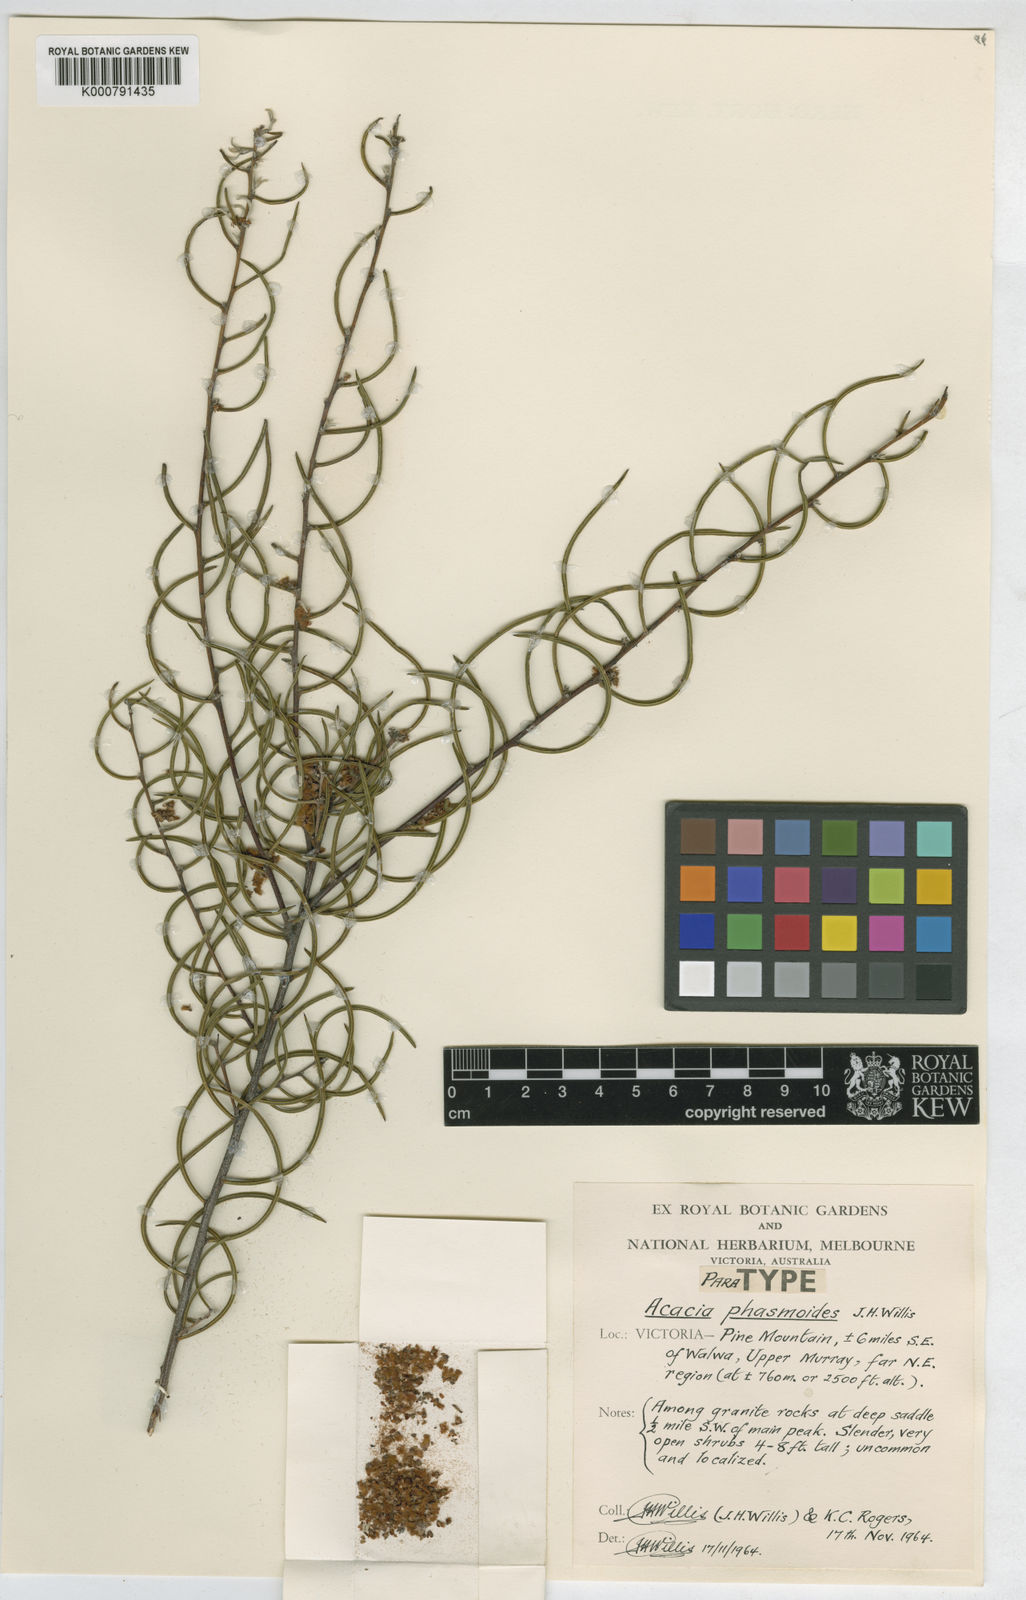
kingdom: Plantae
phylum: Tracheophyta
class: Magnoliopsida
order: Fabales
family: Fabaceae
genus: Acacia
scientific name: Acacia phasmoides
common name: Phantom wattle
